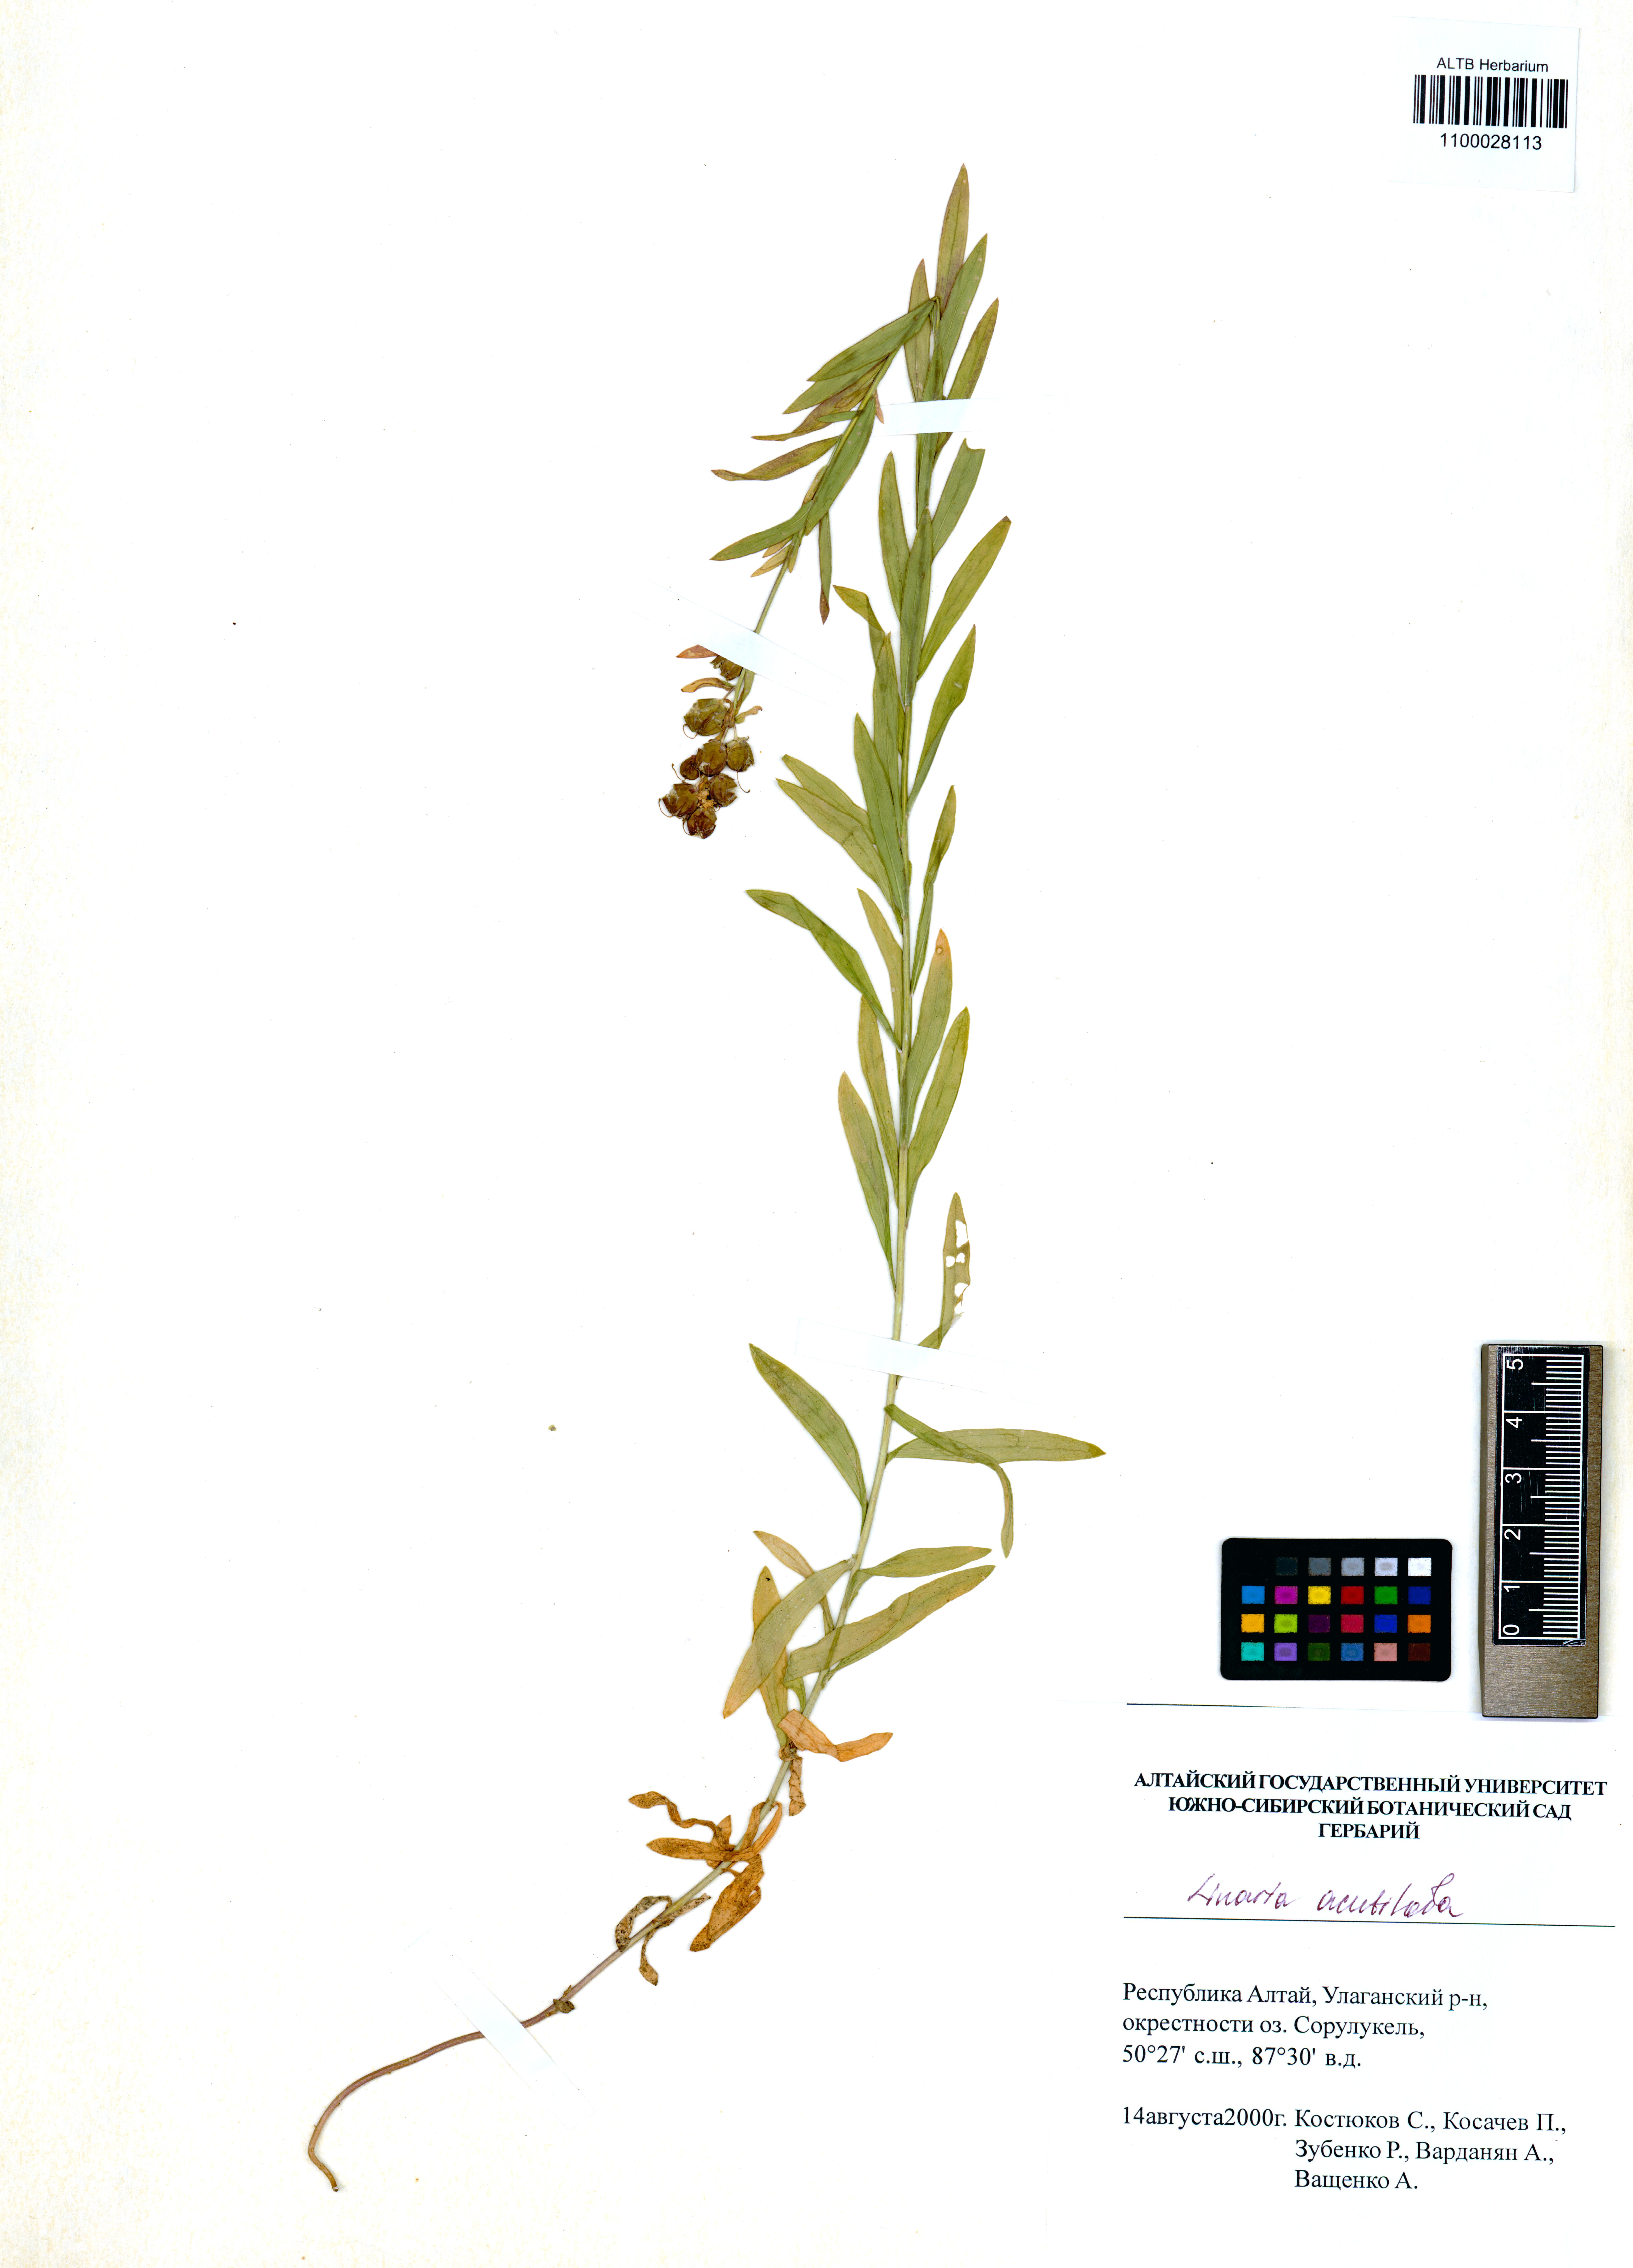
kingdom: Plantae
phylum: Tracheophyta
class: Magnoliopsida
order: Lamiales
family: Plantaginaceae
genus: Linaria
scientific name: Linaria acutiloba
